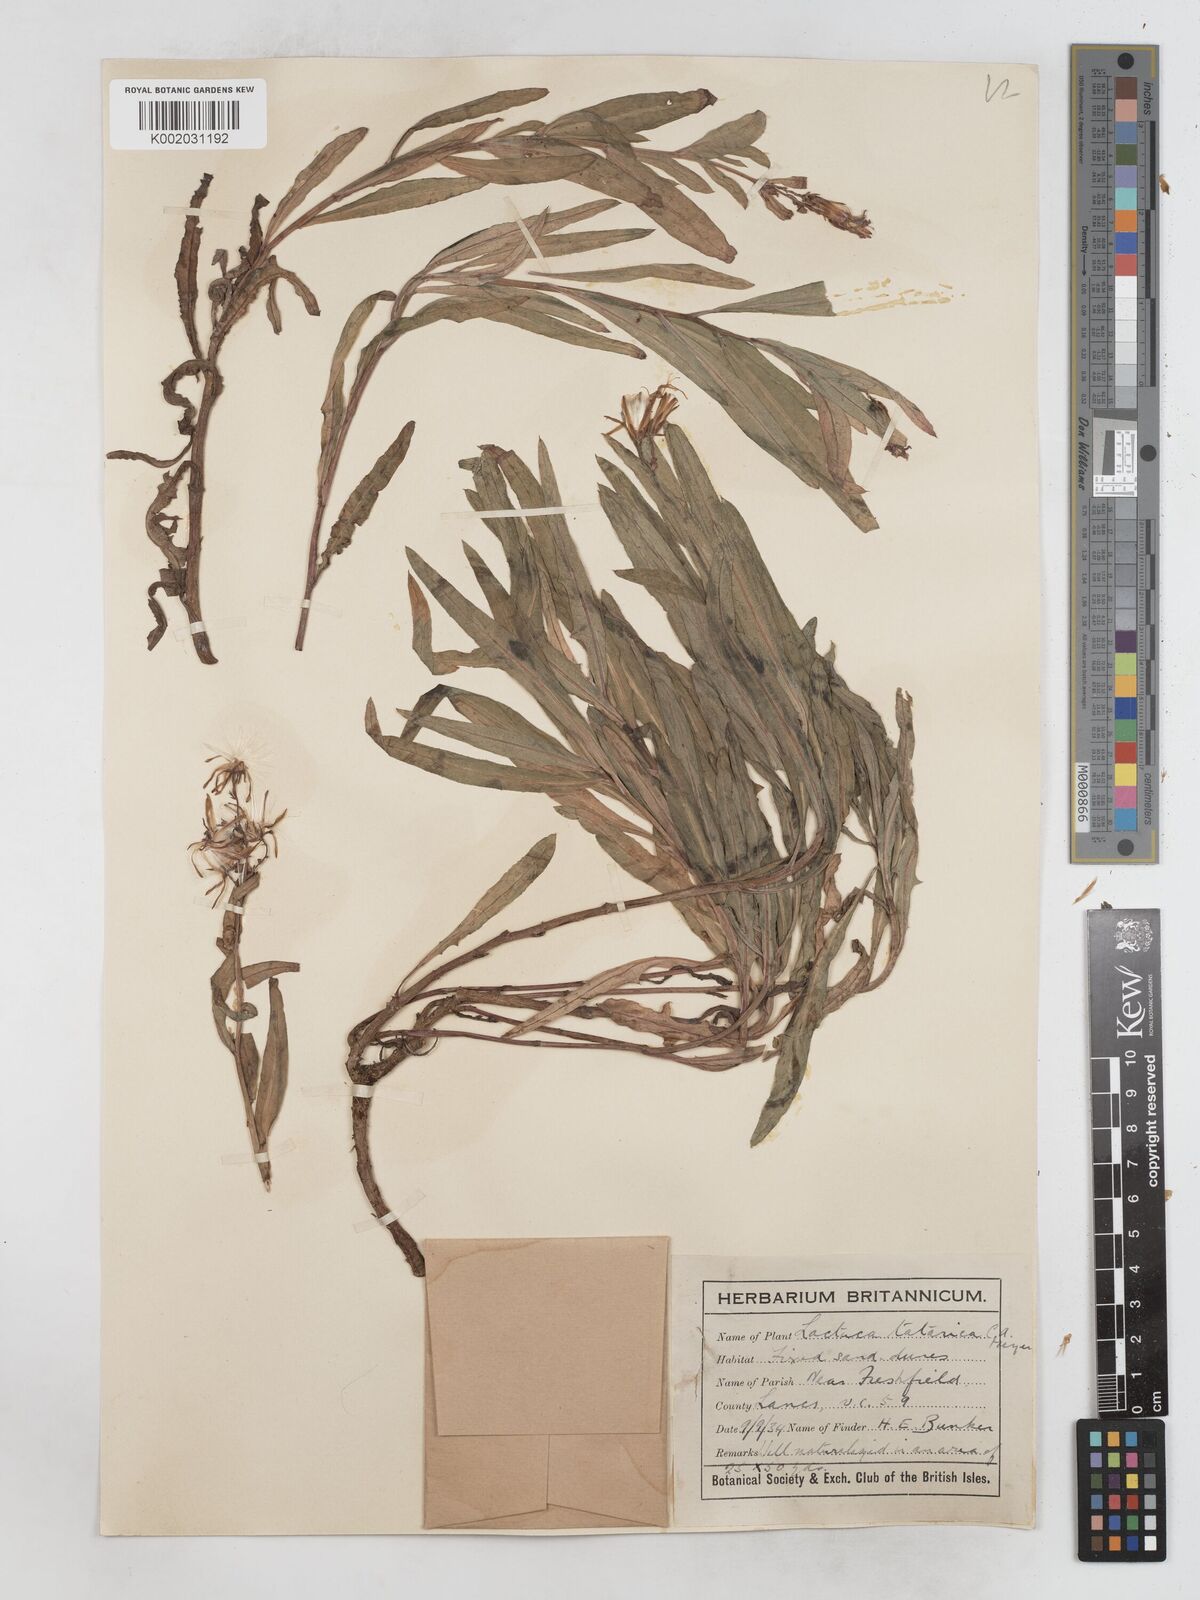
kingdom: Plantae
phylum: Tracheophyta
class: Magnoliopsida
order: Asterales
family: Asteraceae
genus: Lactuca
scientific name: Lactuca tatarica
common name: Blue lettuce
